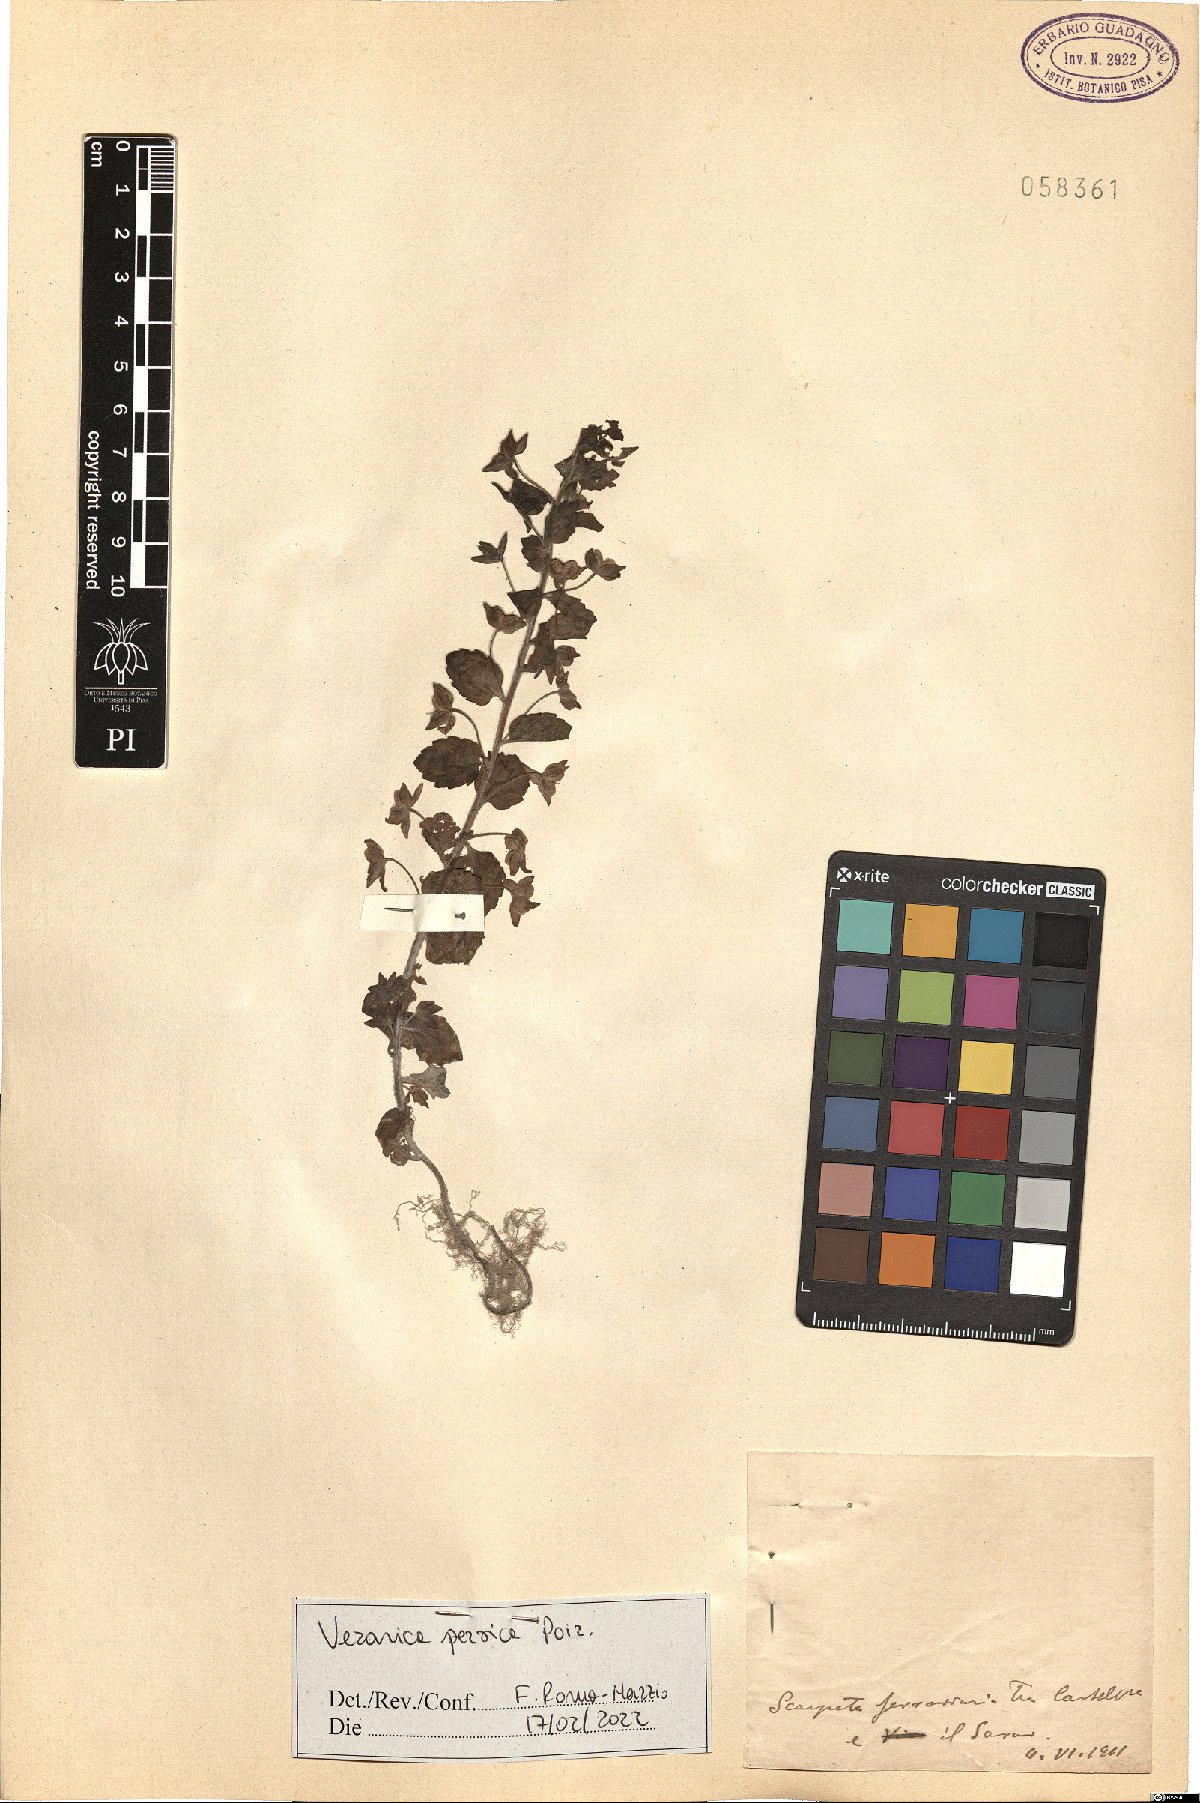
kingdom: Plantae
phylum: Tracheophyta
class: Magnoliopsida
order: Lamiales
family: Plantaginaceae
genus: Veronica
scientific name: Veronica persica
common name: Common field-speedwell
